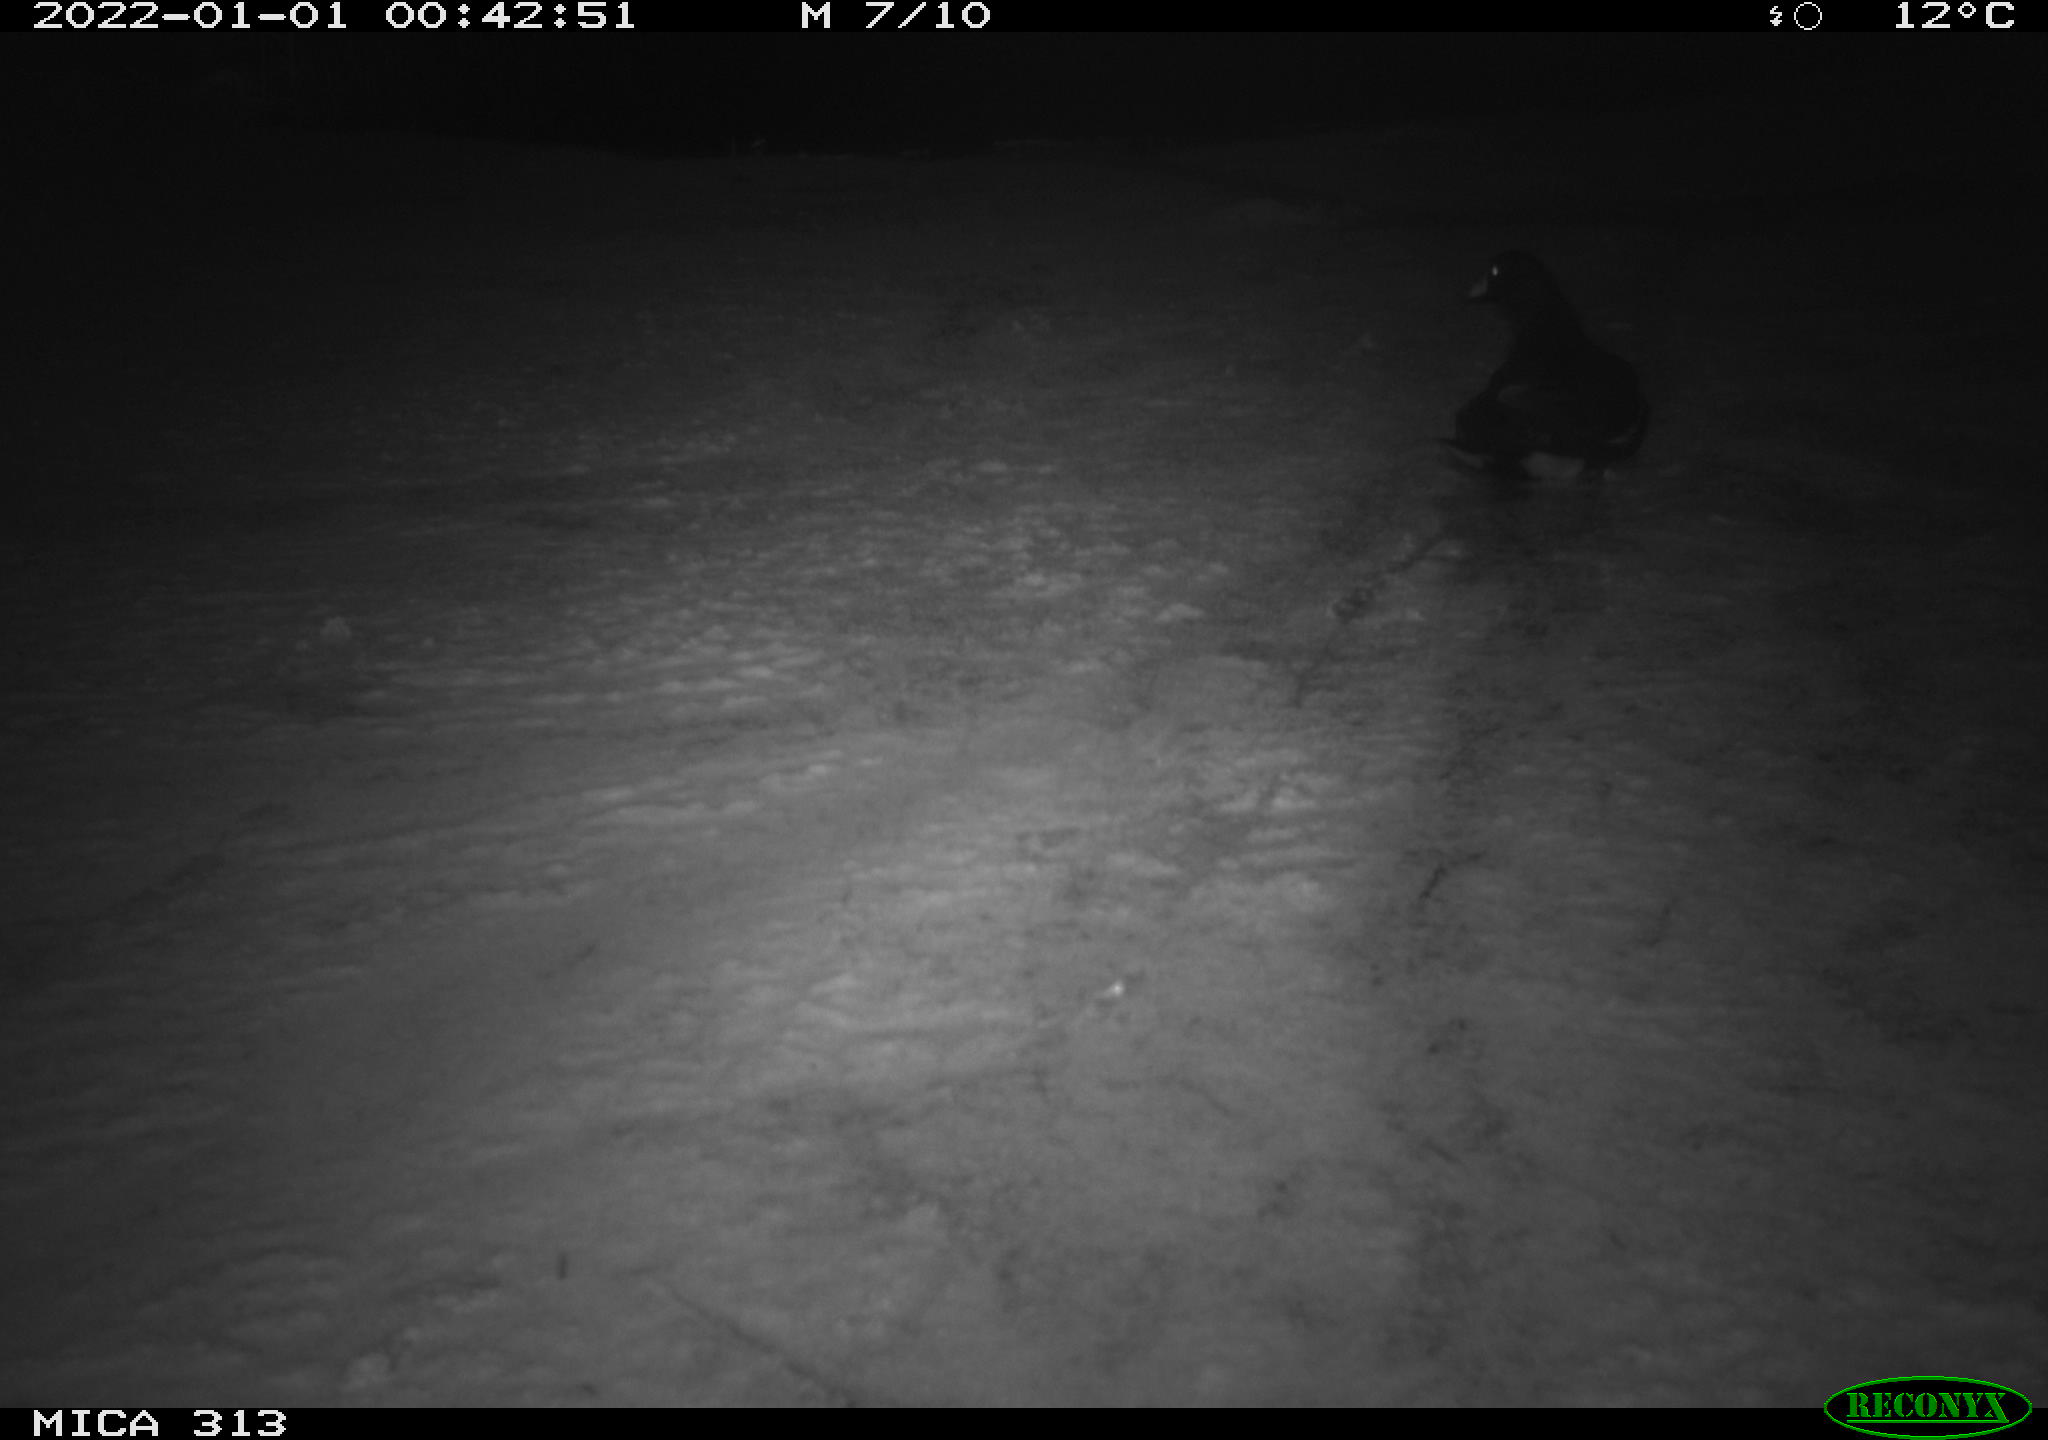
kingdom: Animalia
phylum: Chordata
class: Aves
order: Gruiformes
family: Rallidae
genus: Gallinula
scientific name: Gallinula chloropus
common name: Common moorhen
